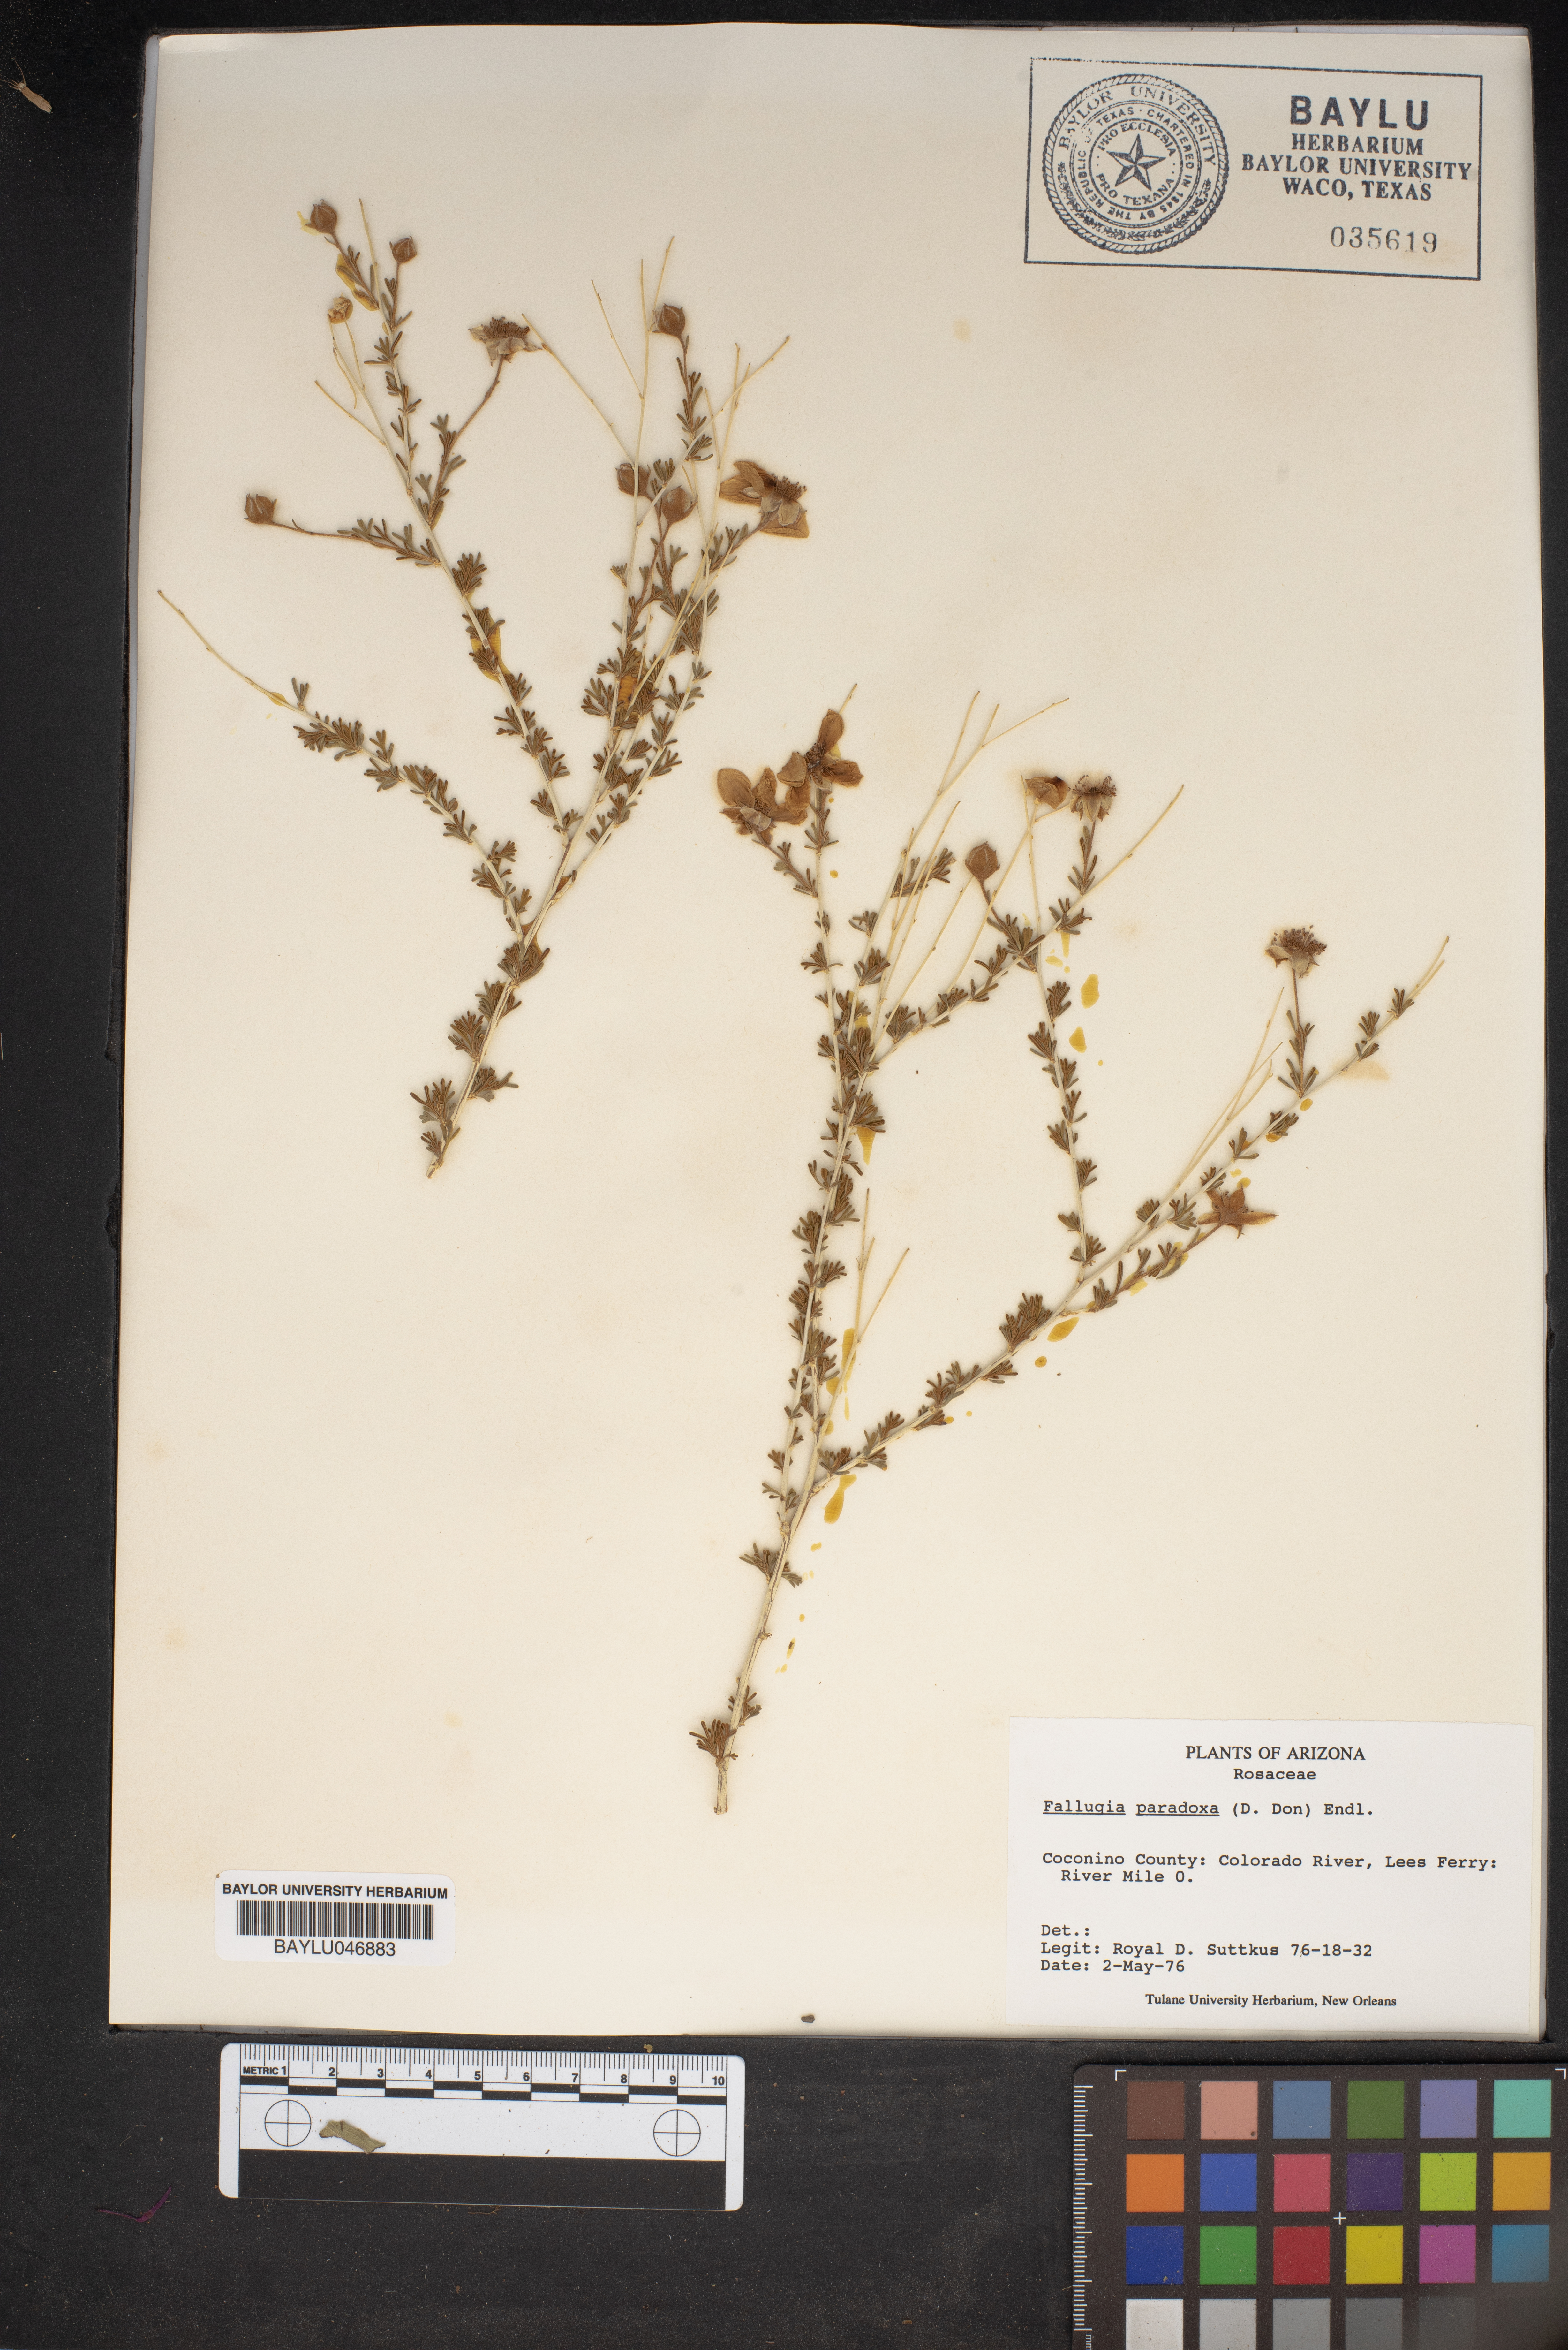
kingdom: Plantae
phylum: Tracheophyta
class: Magnoliopsida
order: Rosales
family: Rosaceae
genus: Fallugia
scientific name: Fallugia paradoxa
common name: Apache-plume
